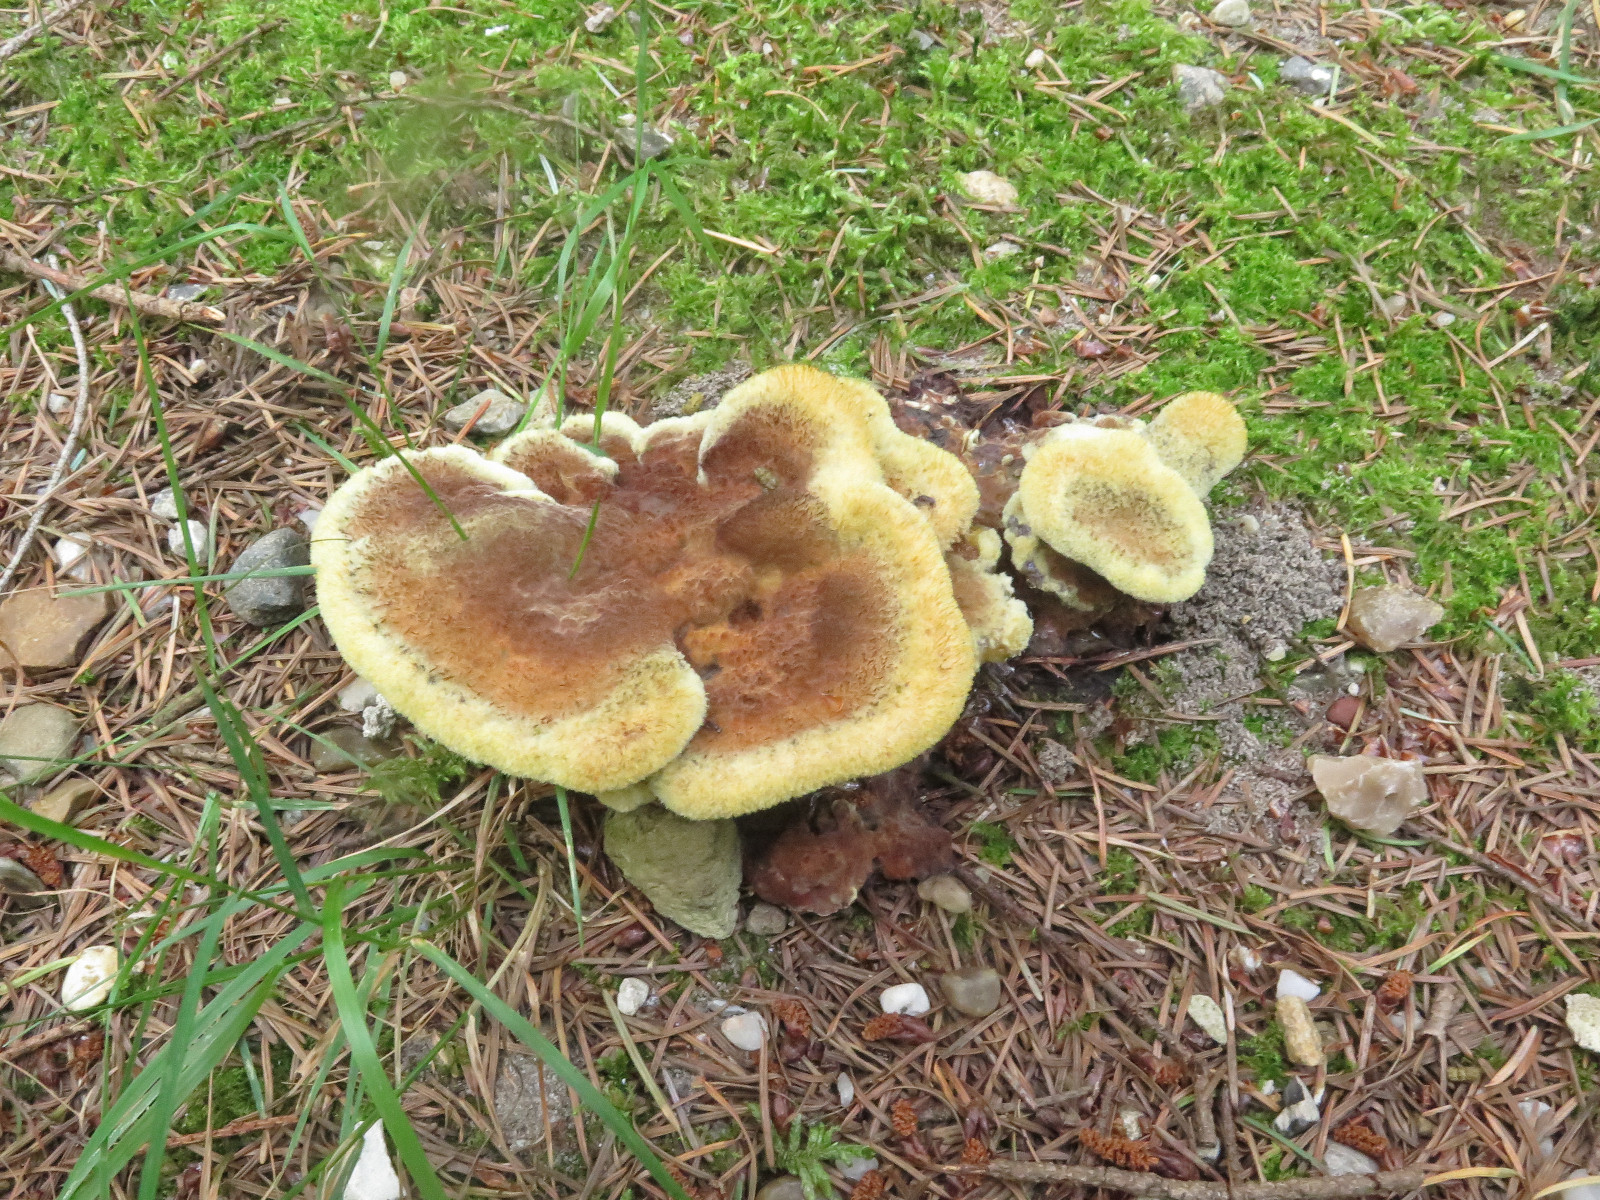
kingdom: Fungi
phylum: Basidiomycota
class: Agaricomycetes
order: Polyporales
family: Laetiporaceae
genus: Phaeolus
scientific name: Phaeolus schweinitzii
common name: brunporesvamp
